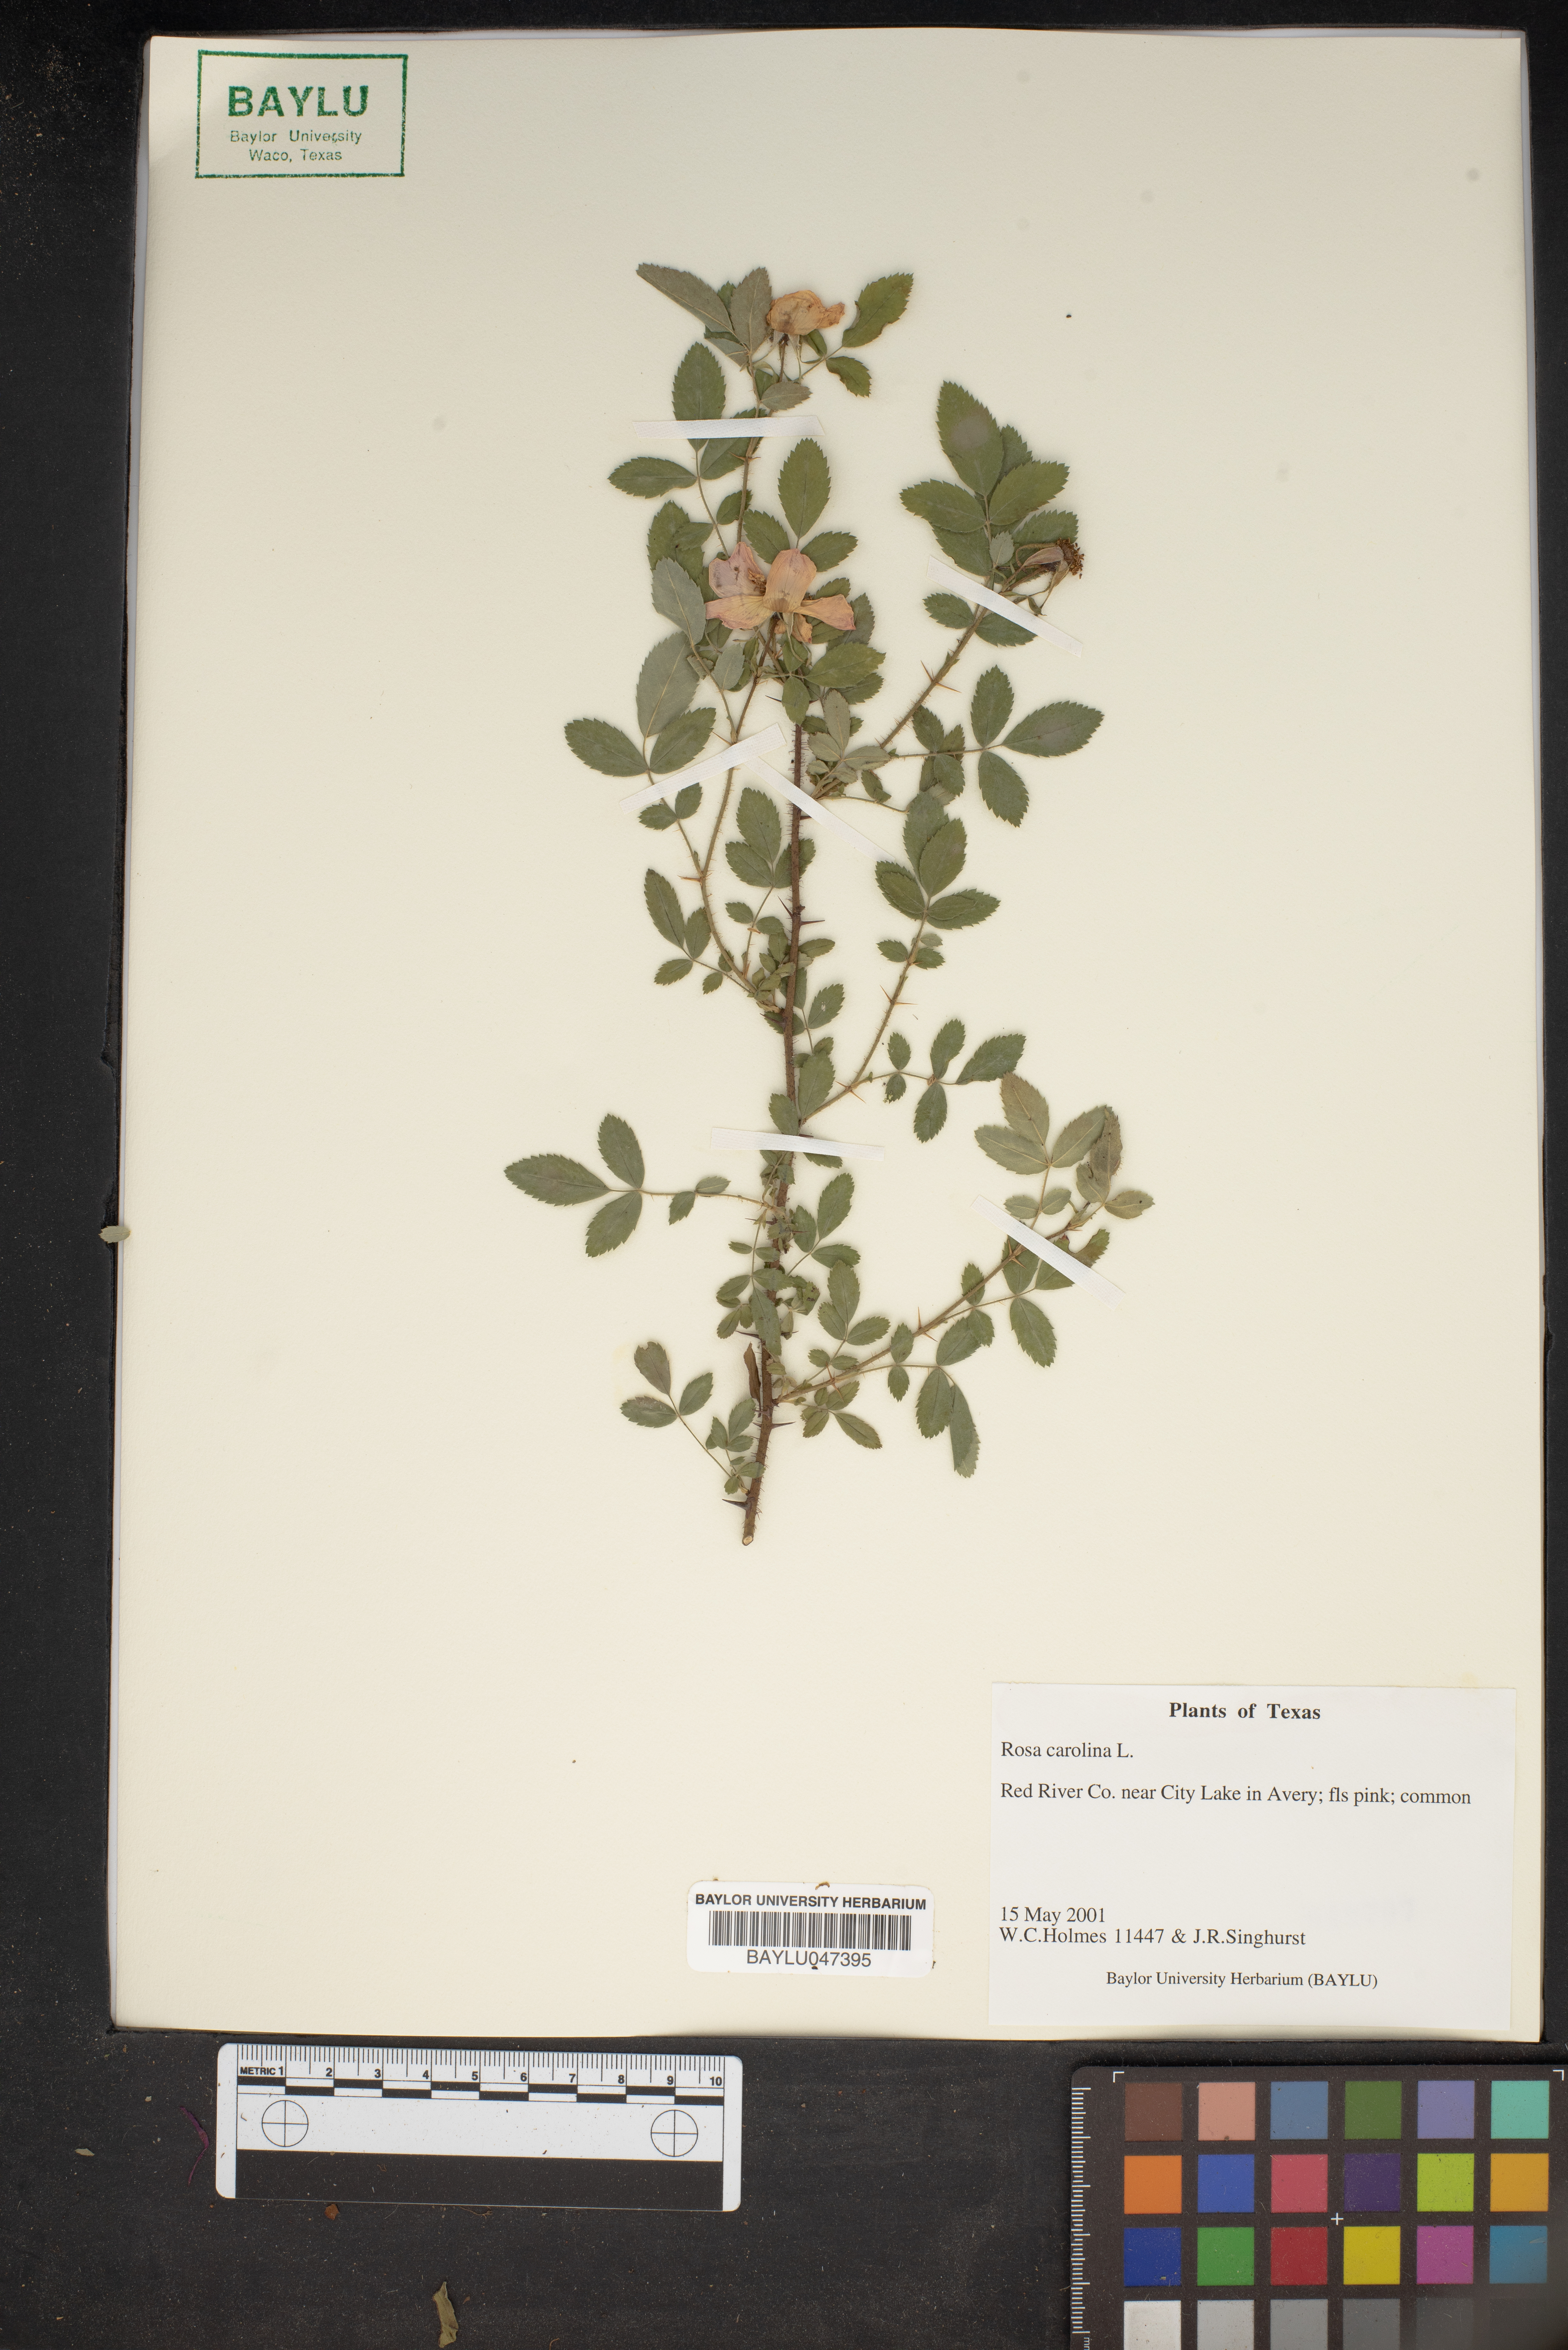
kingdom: Plantae
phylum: Tracheophyta
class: Magnoliopsida
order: Rosales
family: Rosaceae
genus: Rosa
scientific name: Rosa carolina
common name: Pasture rose
